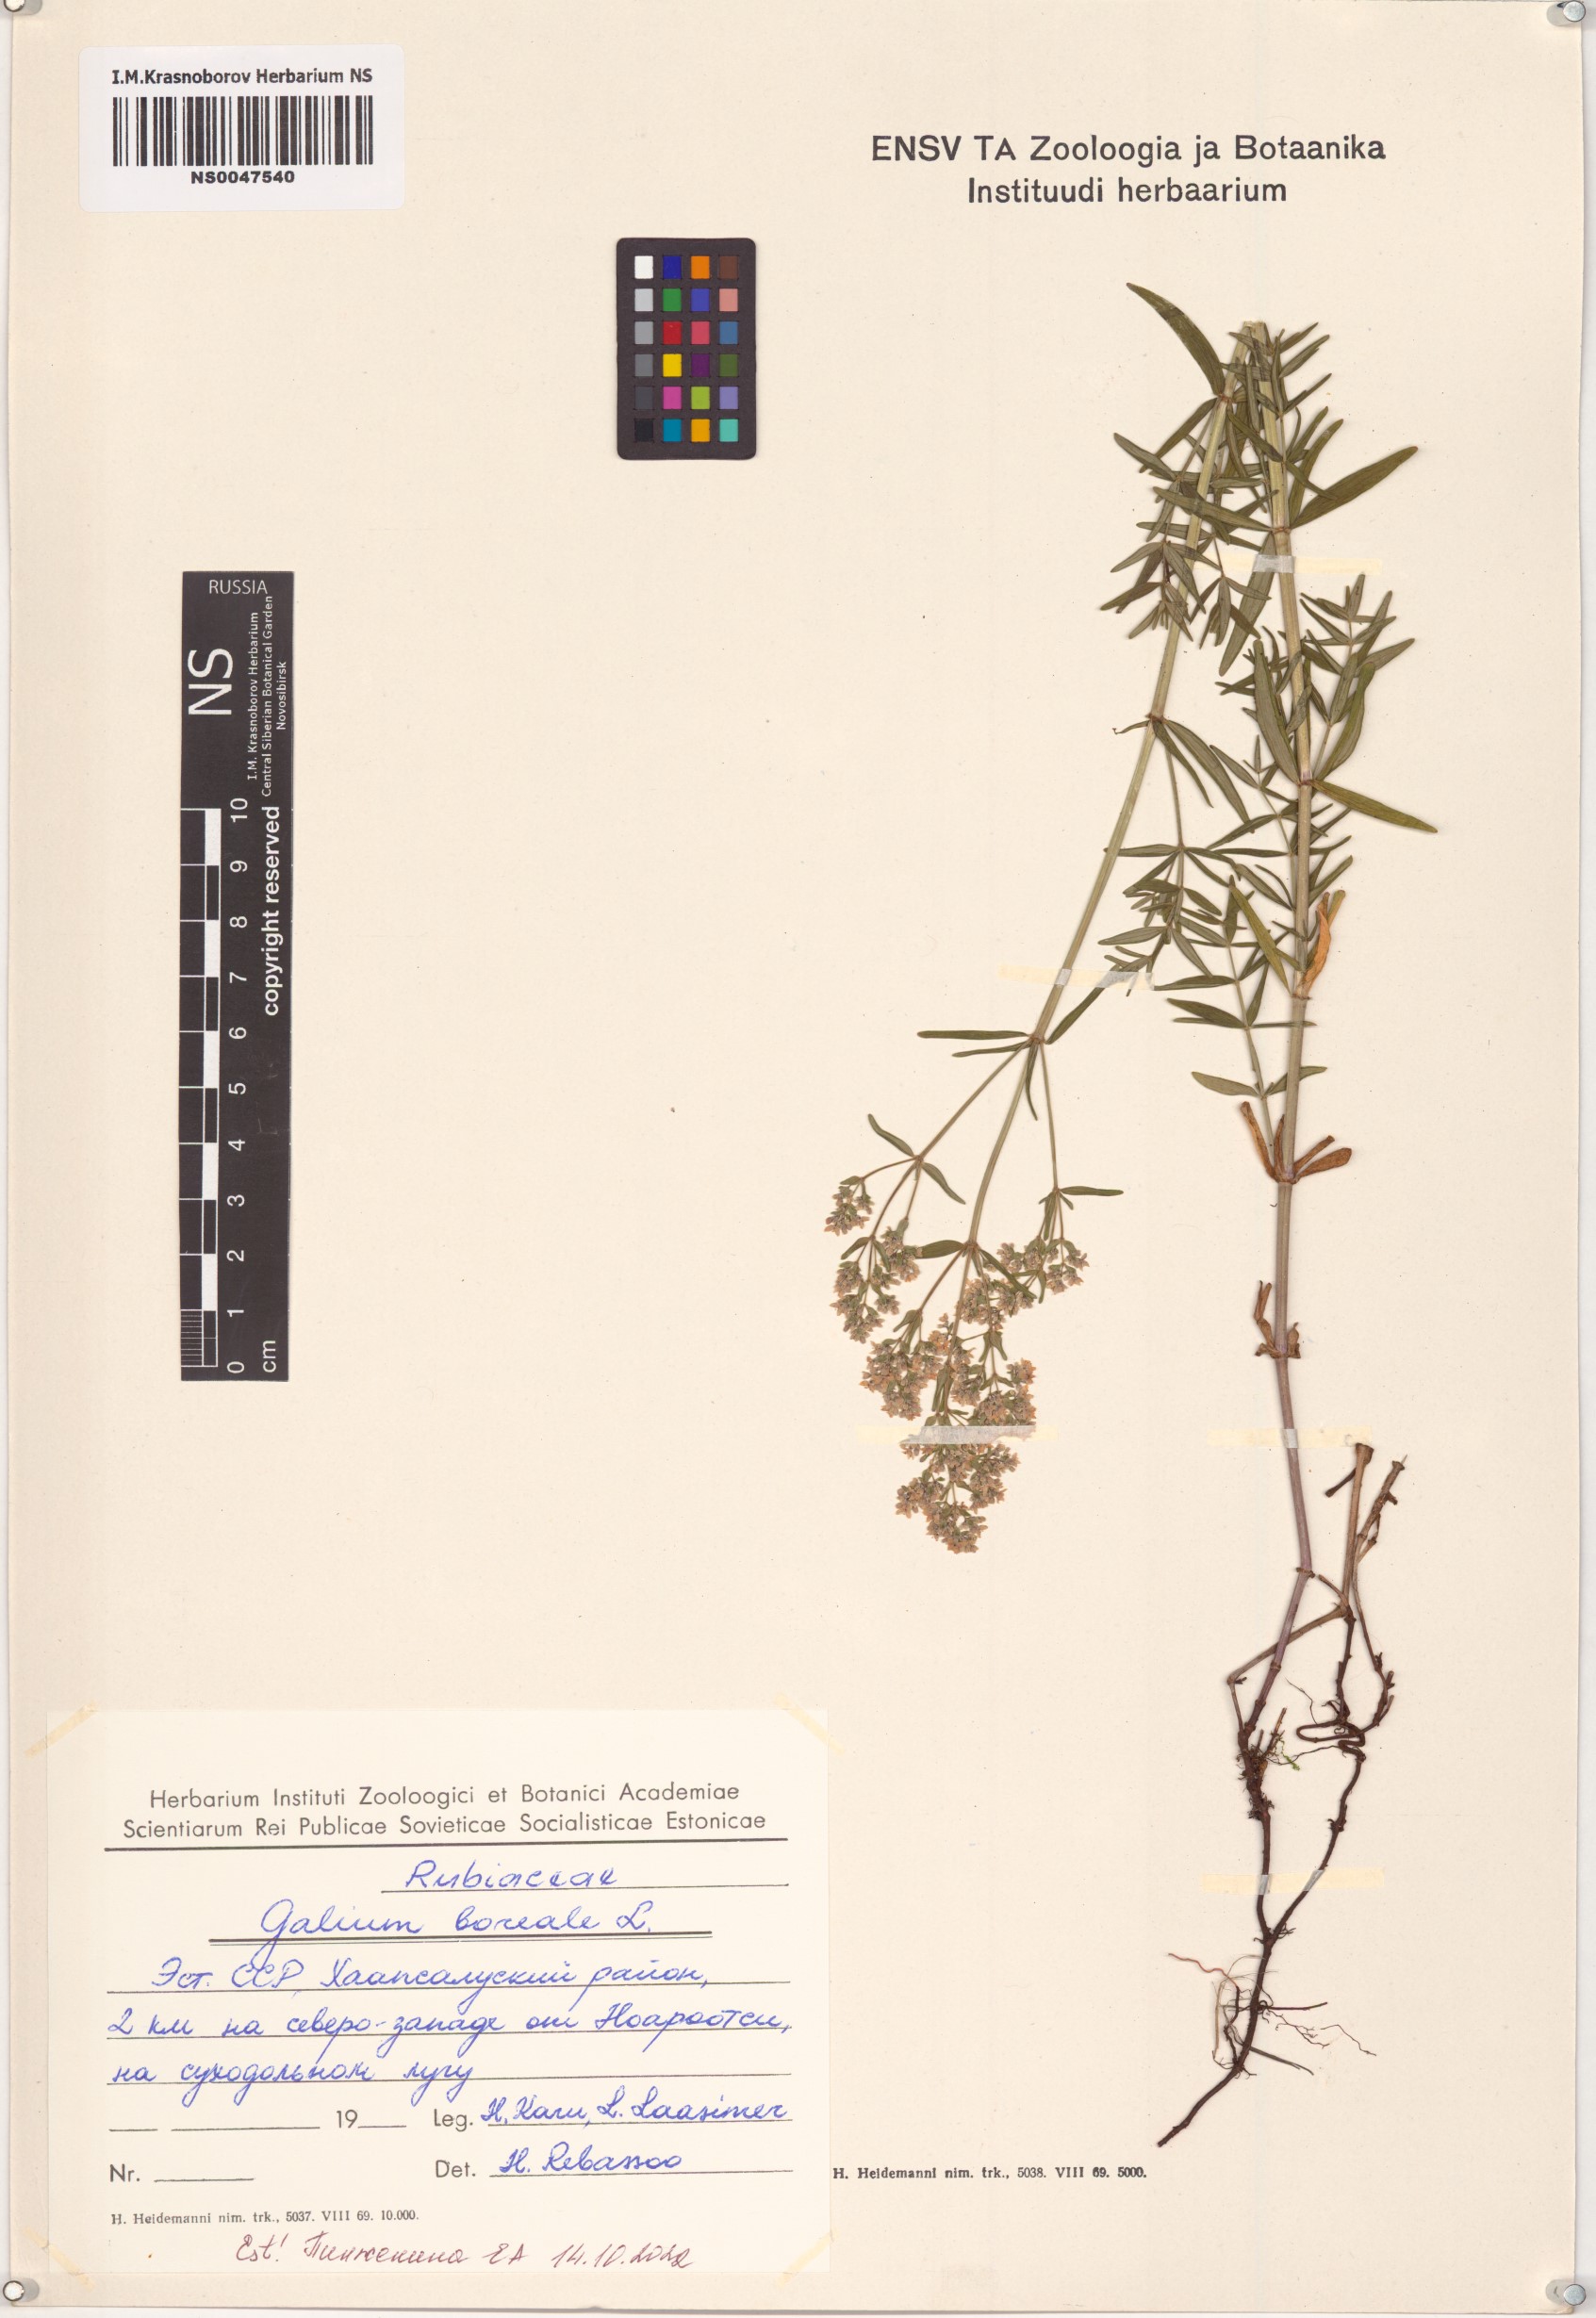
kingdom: Plantae
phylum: Tracheophyta
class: Magnoliopsida
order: Gentianales
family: Rubiaceae
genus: Galium
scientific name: Galium boreale
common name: Northern bedstraw
